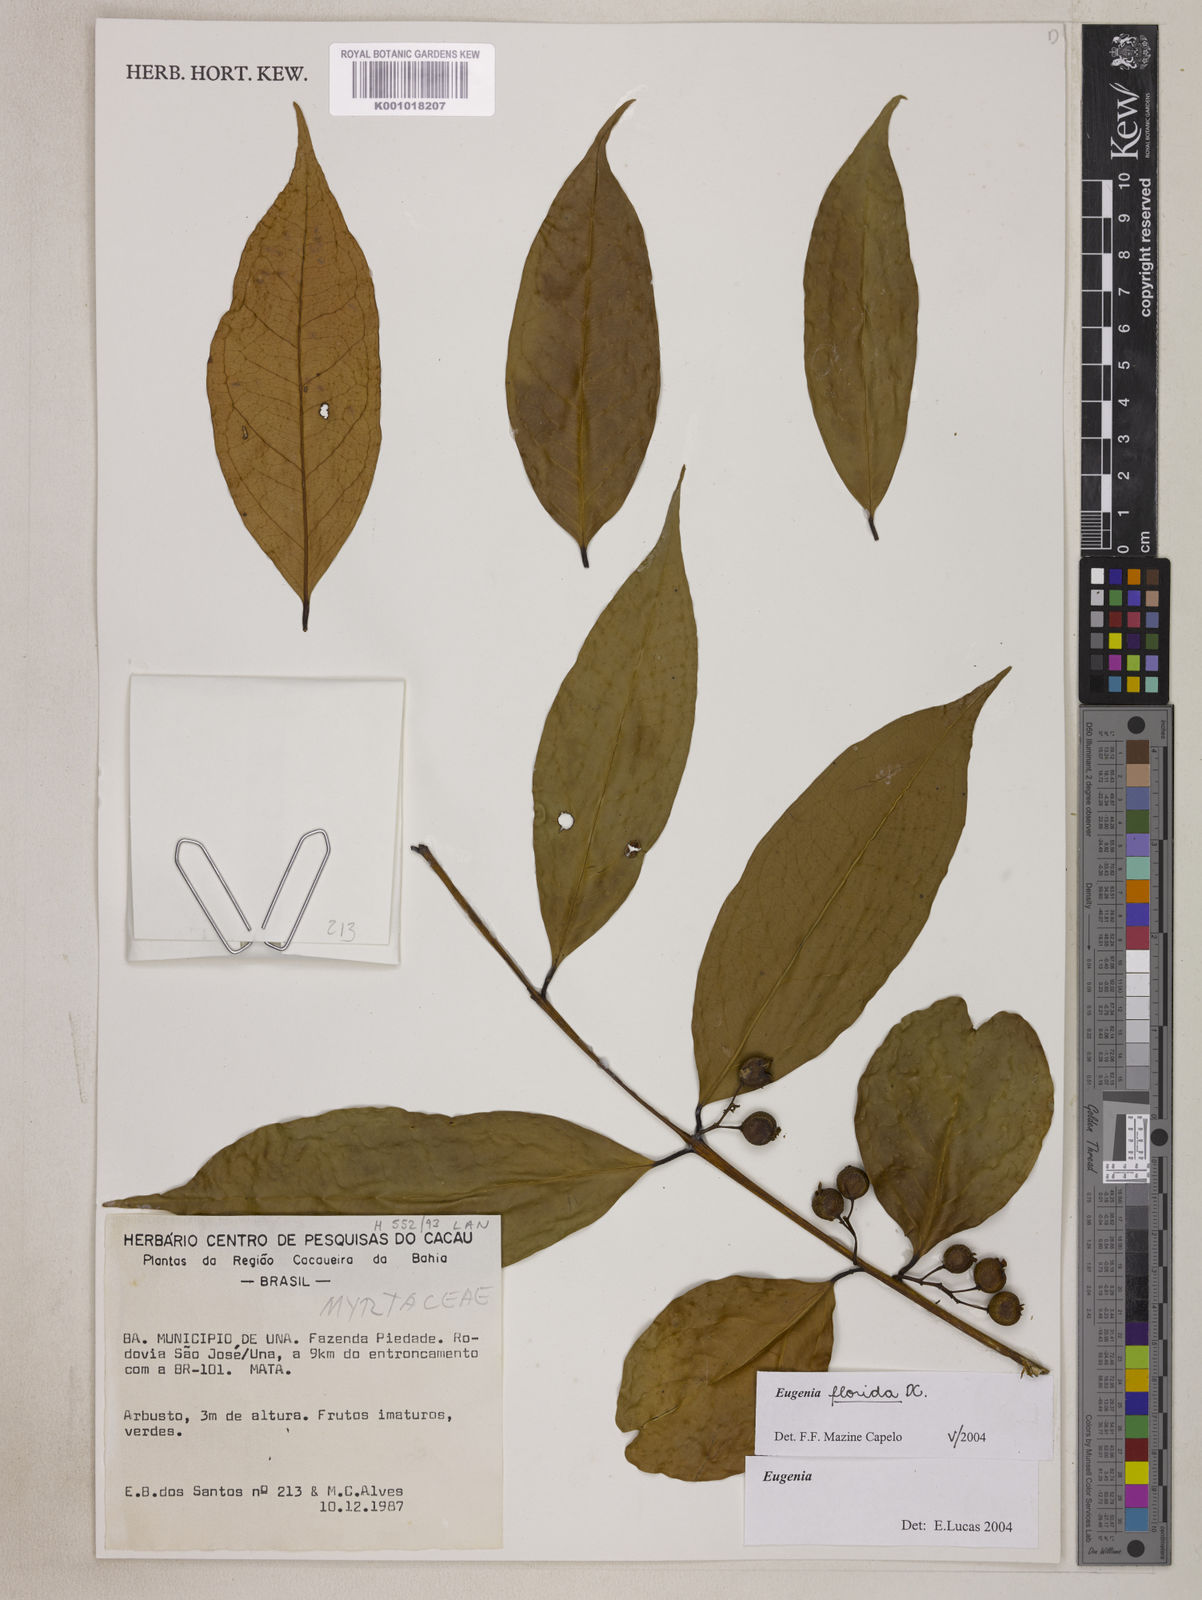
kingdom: Plantae
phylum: Tracheophyta
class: Magnoliopsida
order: Myrtales
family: Myrtaceae
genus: Eugenia
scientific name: Eugenia florida
